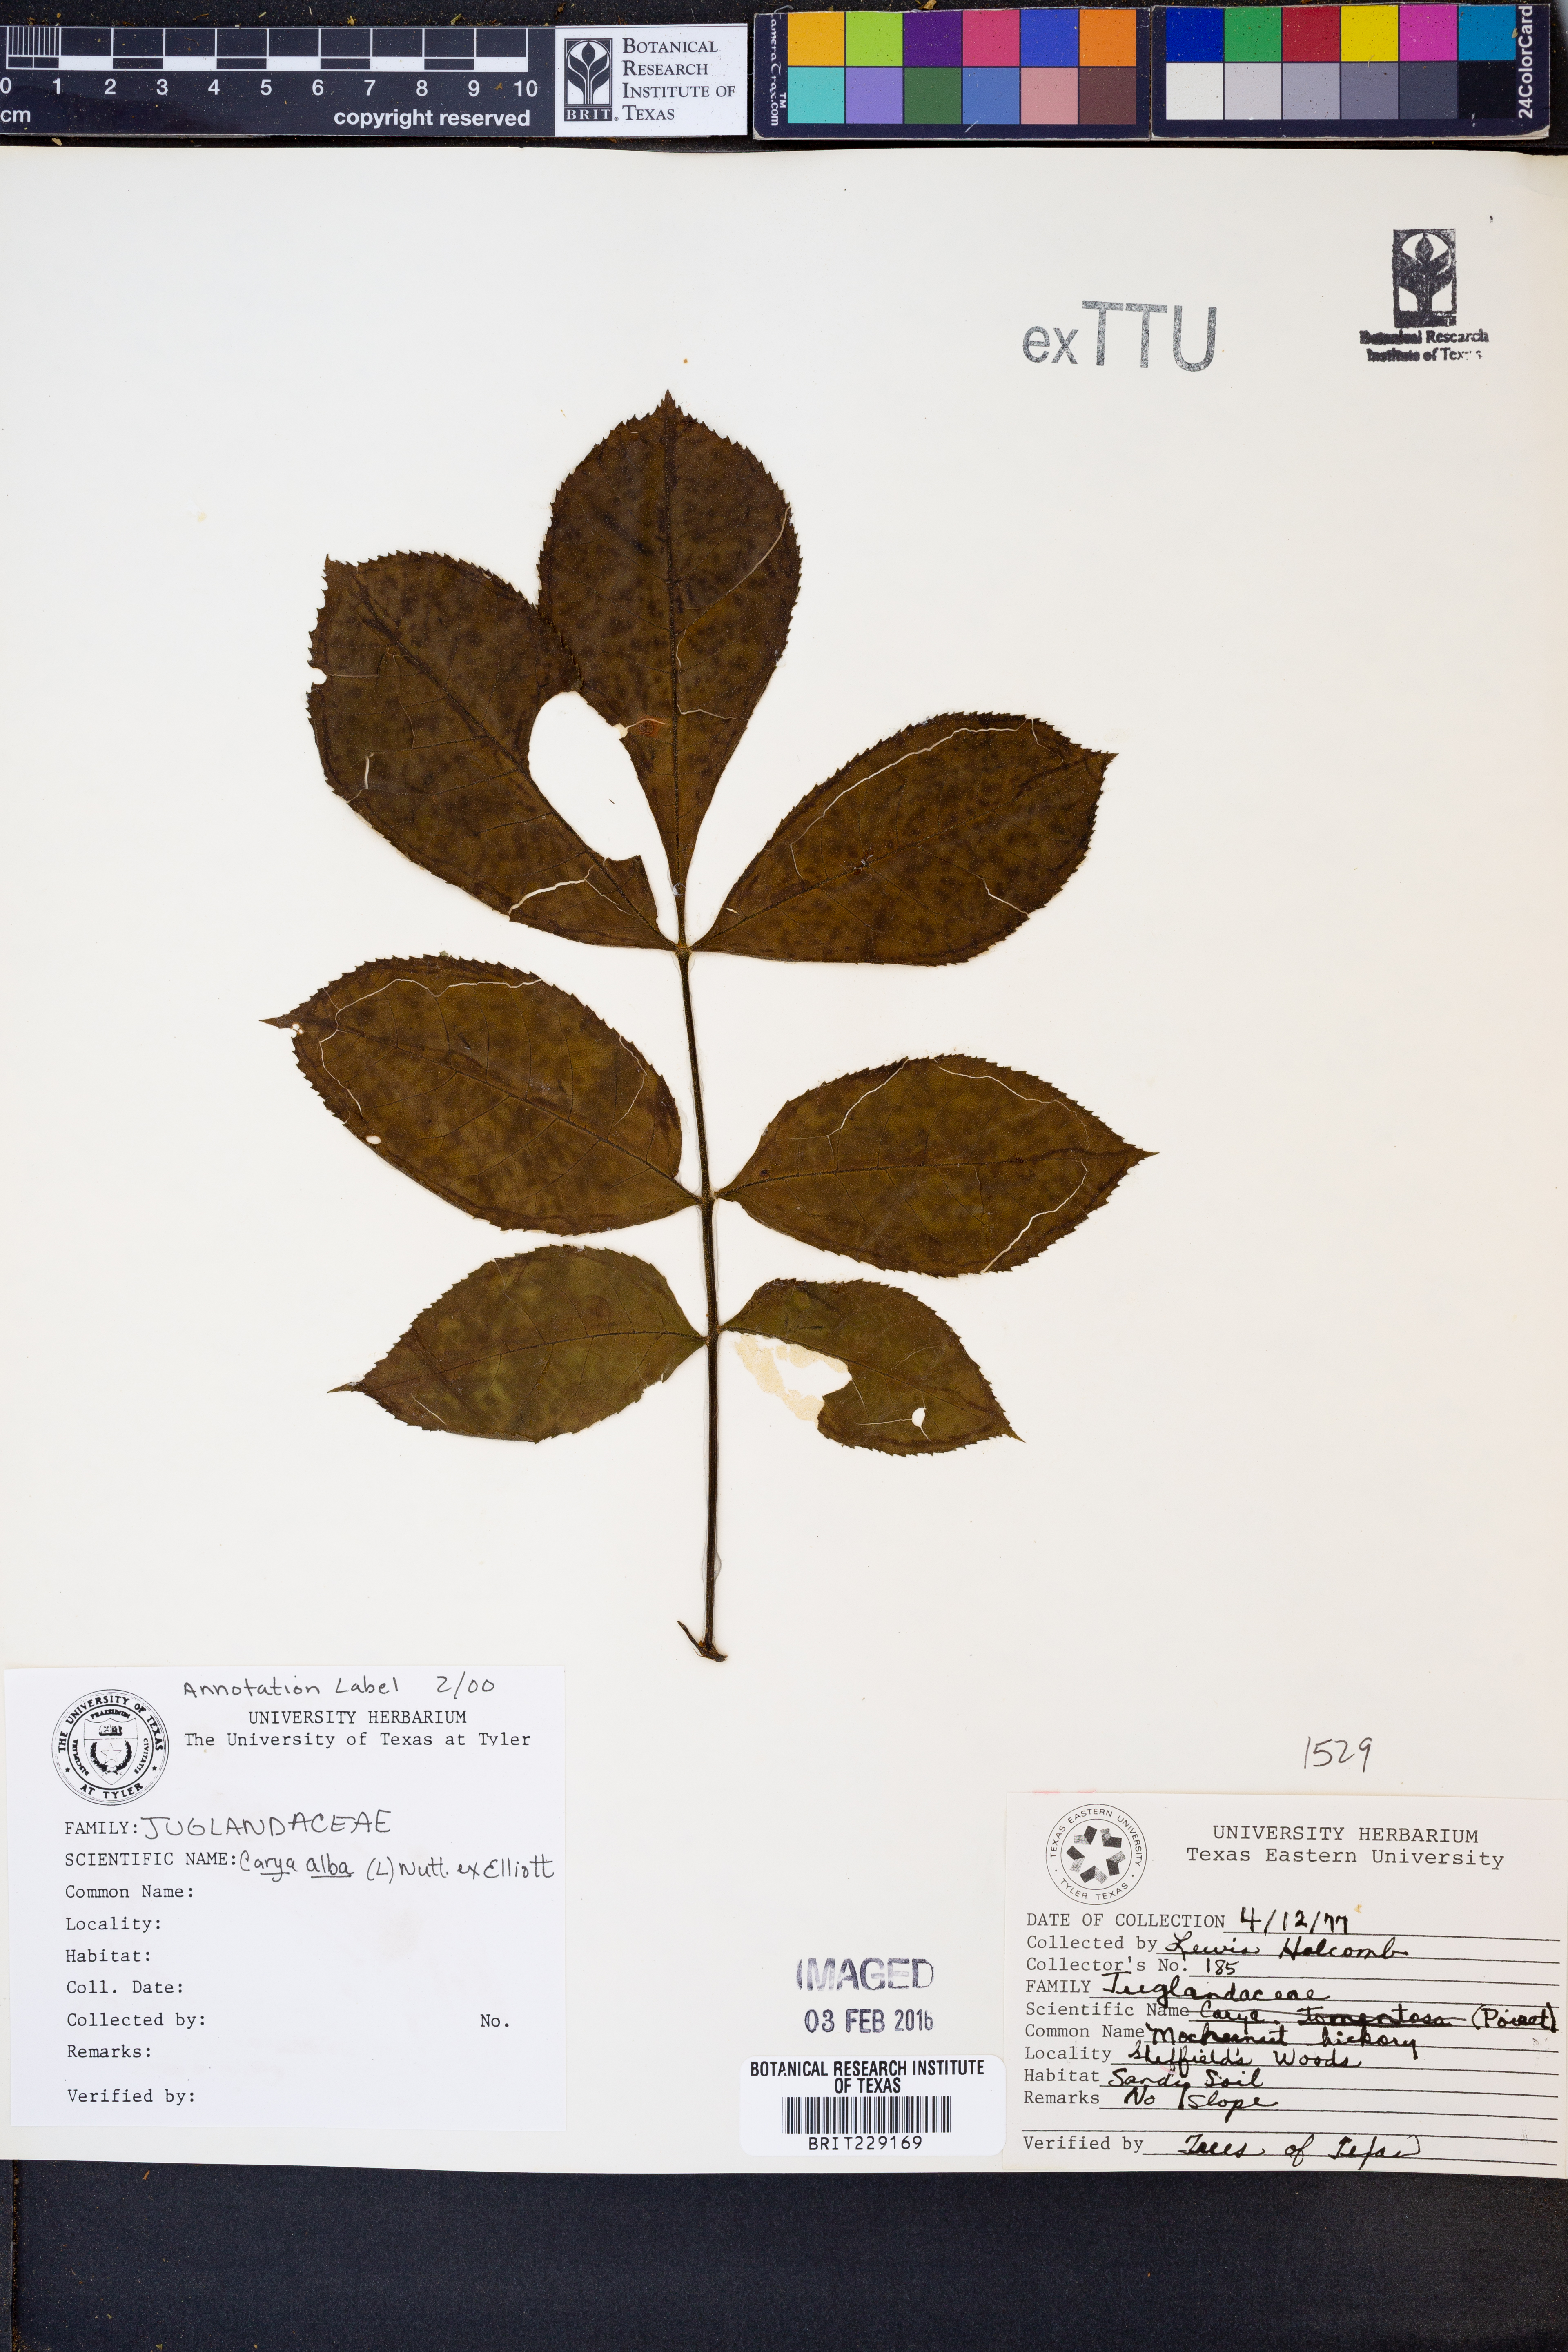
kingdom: Plantae
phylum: Tracheophyta
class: Magnoliopsida
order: Fagales
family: Juglandaceae
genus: Carya
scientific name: Carya alba
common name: Mockernut hickory
